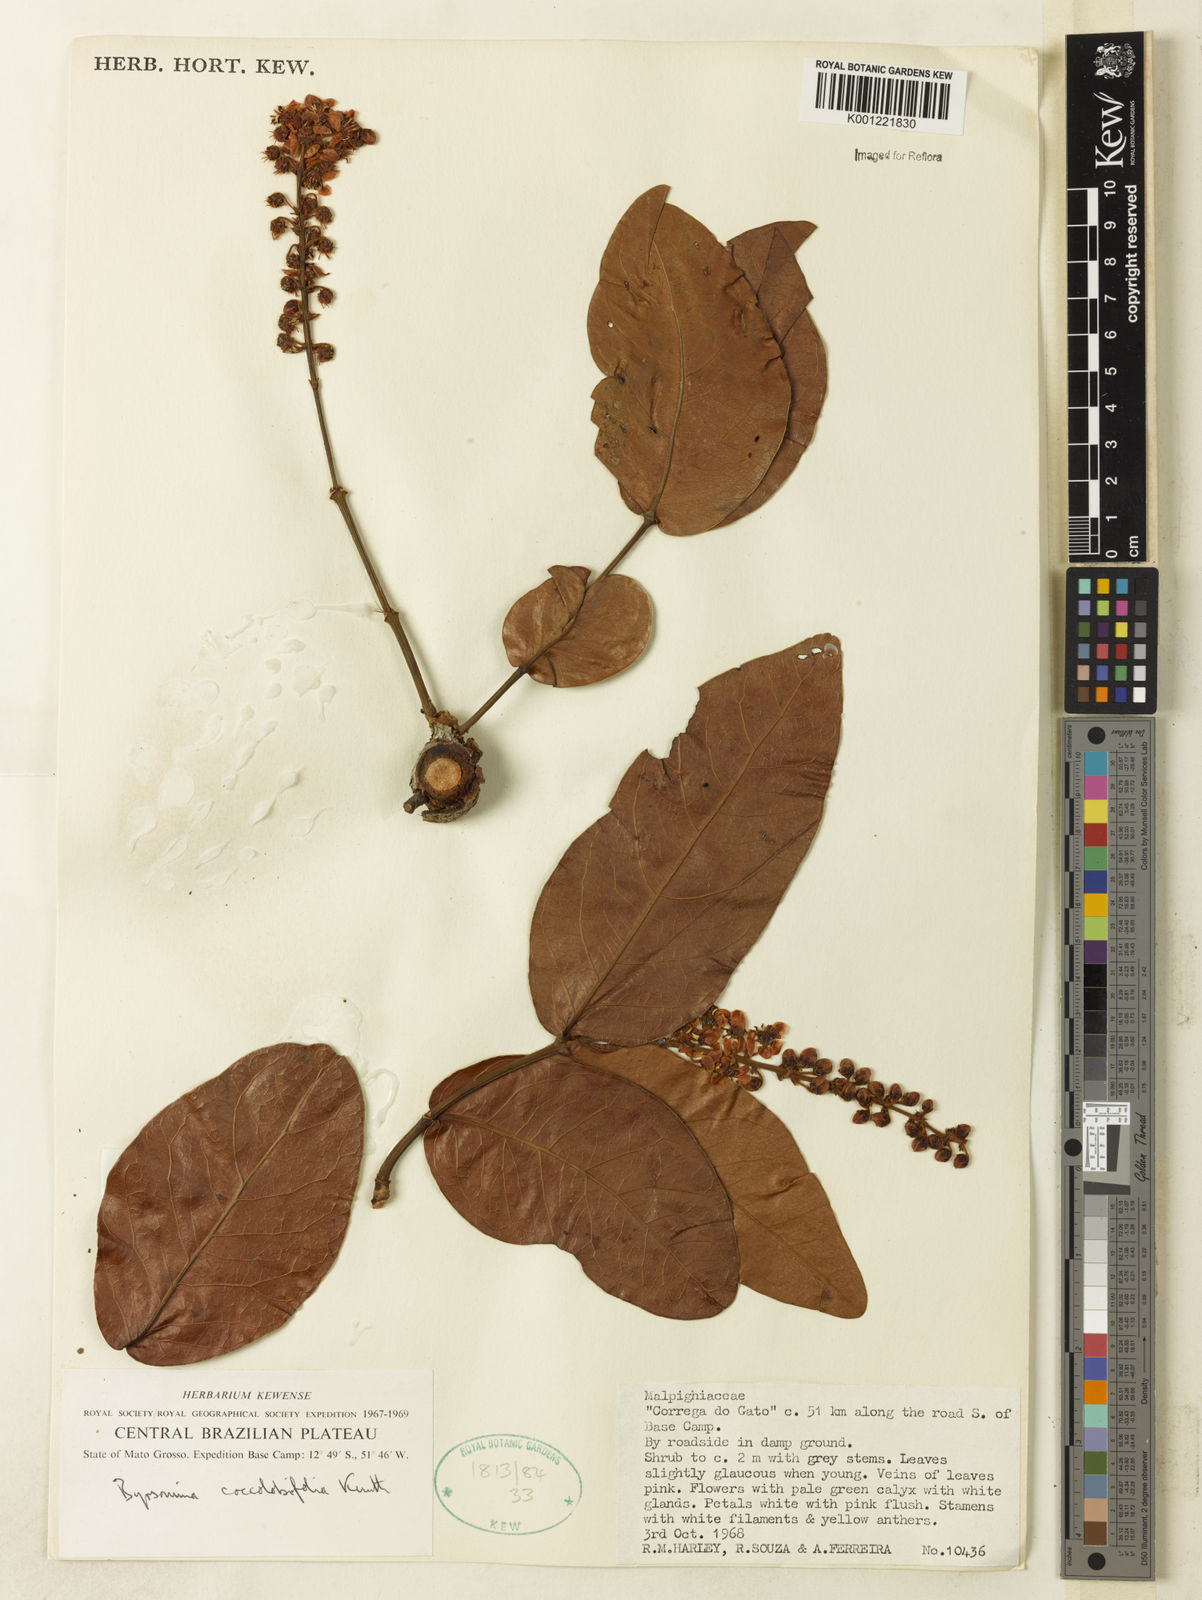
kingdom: Plantae
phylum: Tracheophyta
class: Magnoliopsida
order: Malpighiales
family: Malpighiaceae
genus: Byrsonima
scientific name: Byrsonima coccolobifolia
